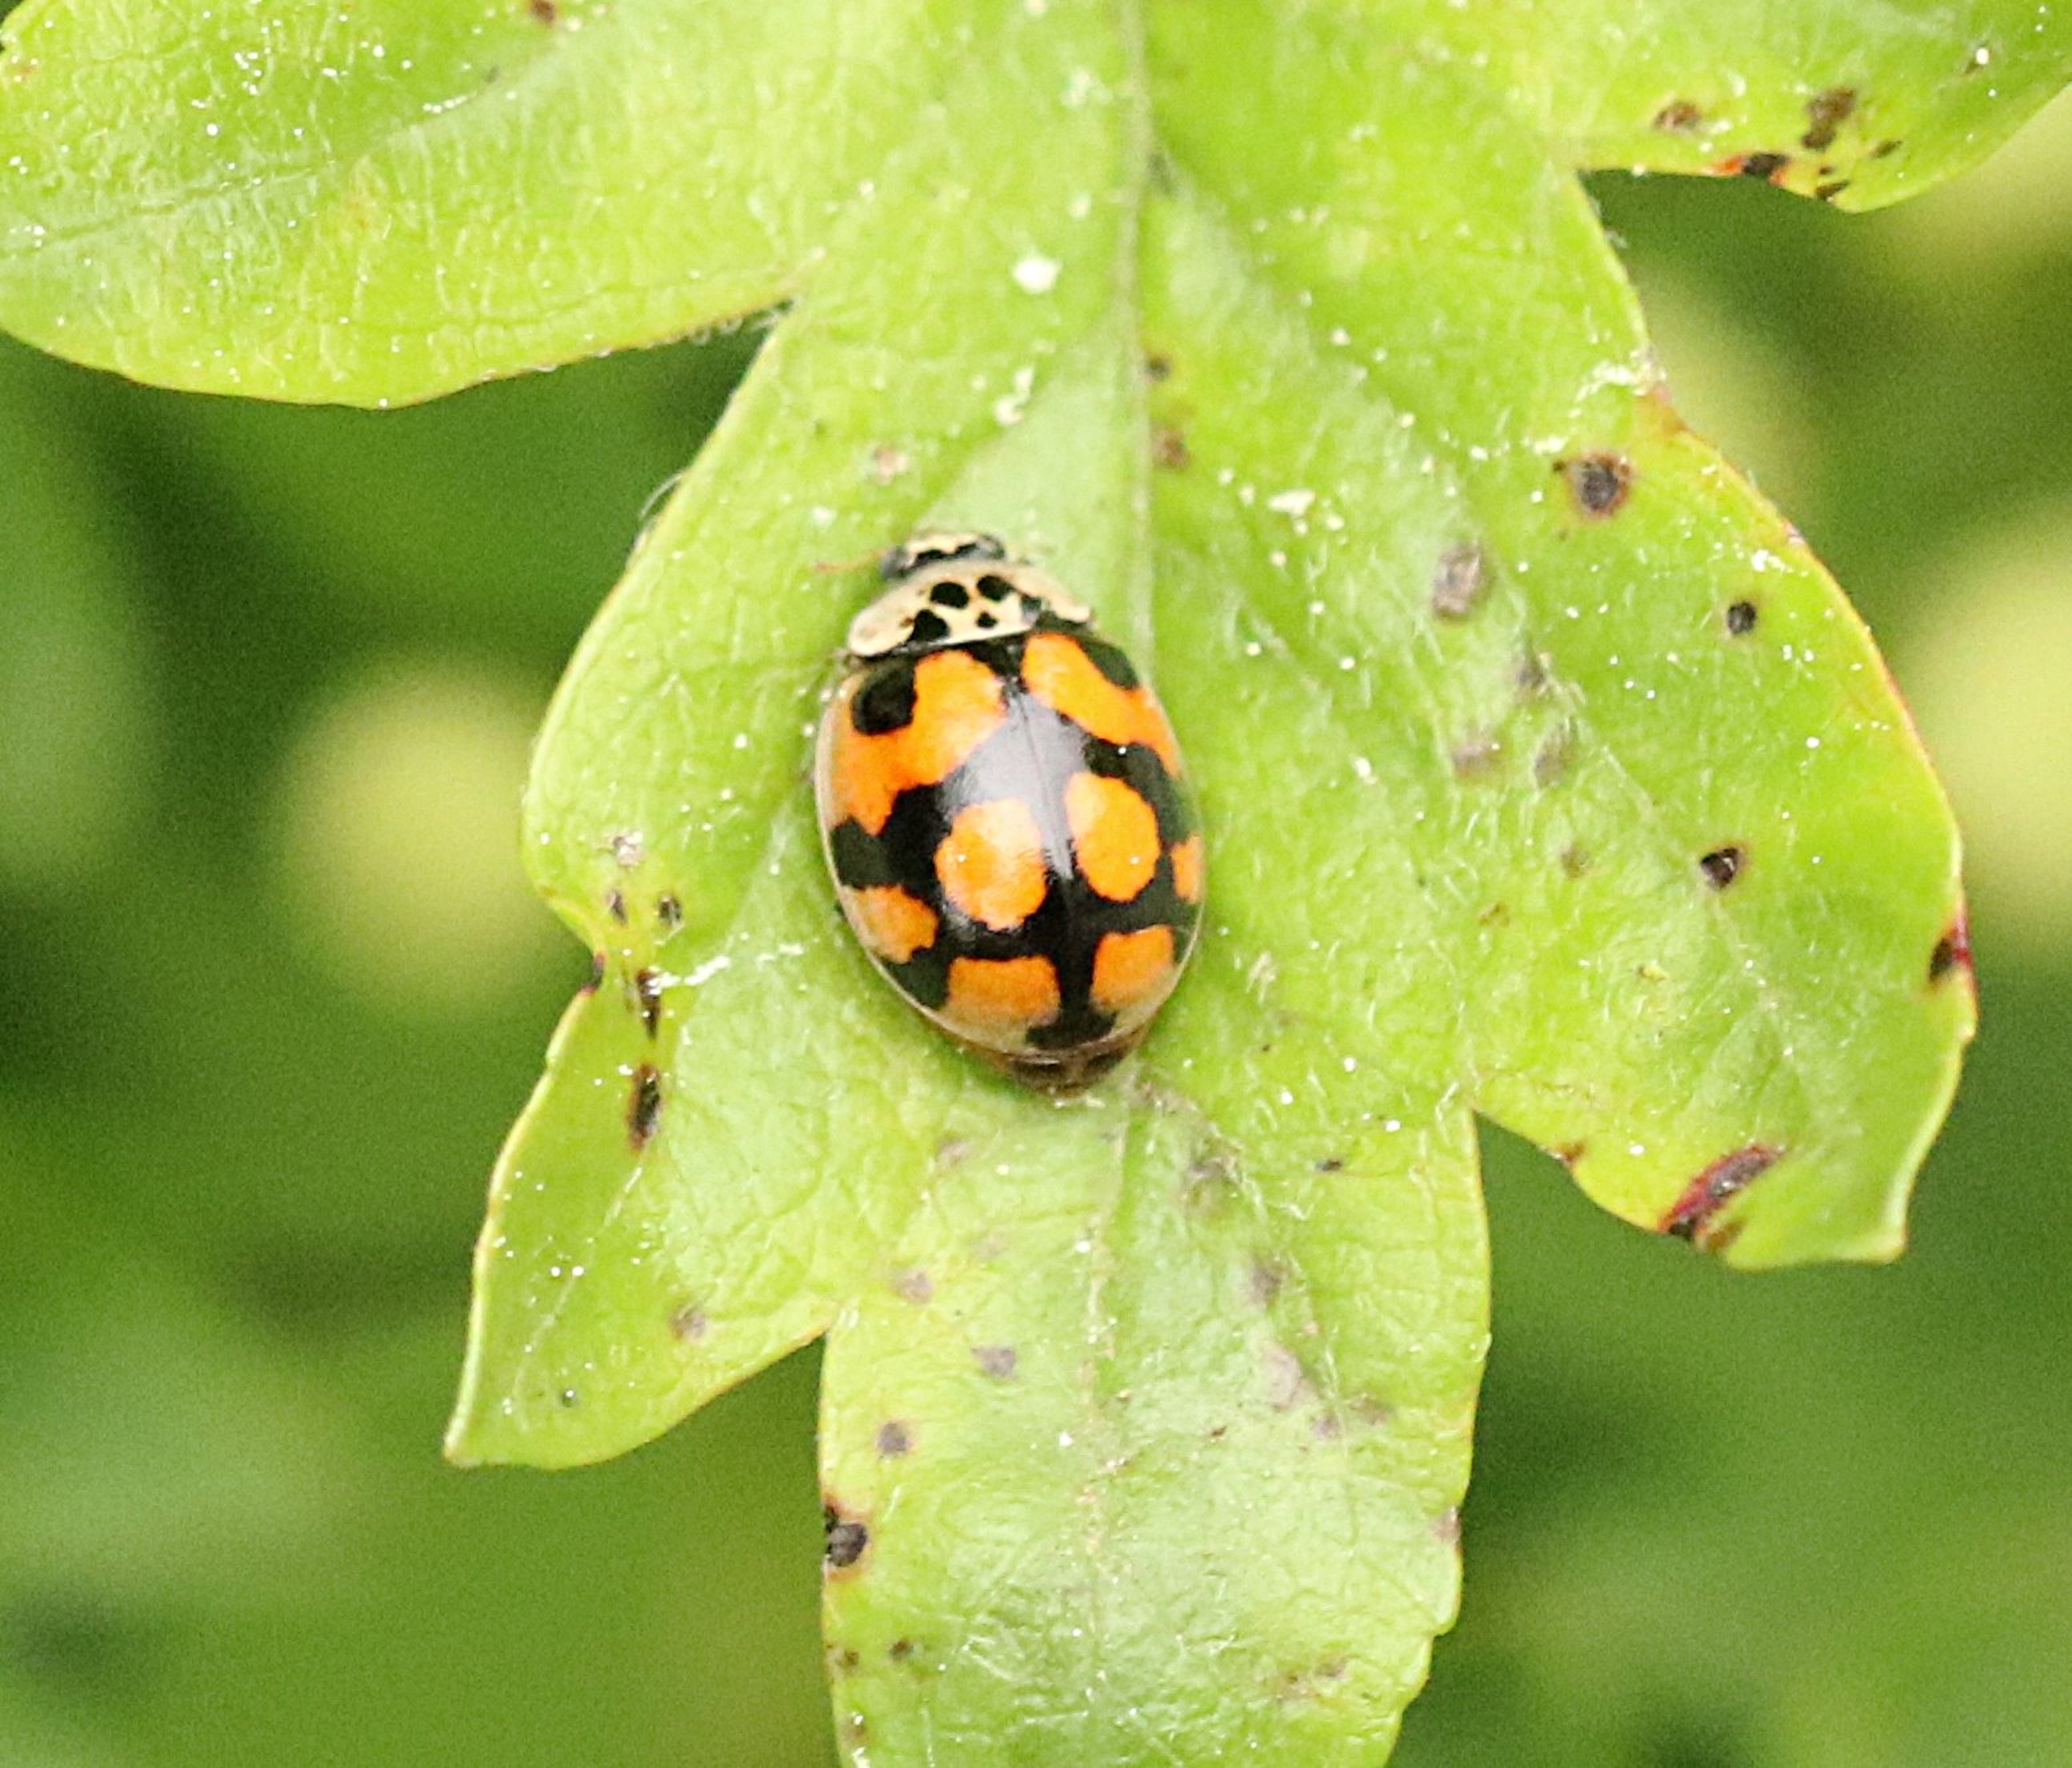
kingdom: Animalia
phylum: Arthropoda
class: Insecta
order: Coleoptera
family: Coccinellidae
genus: Adalia
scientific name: Adalia decempunctata
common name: Tiplettet mariehøne
